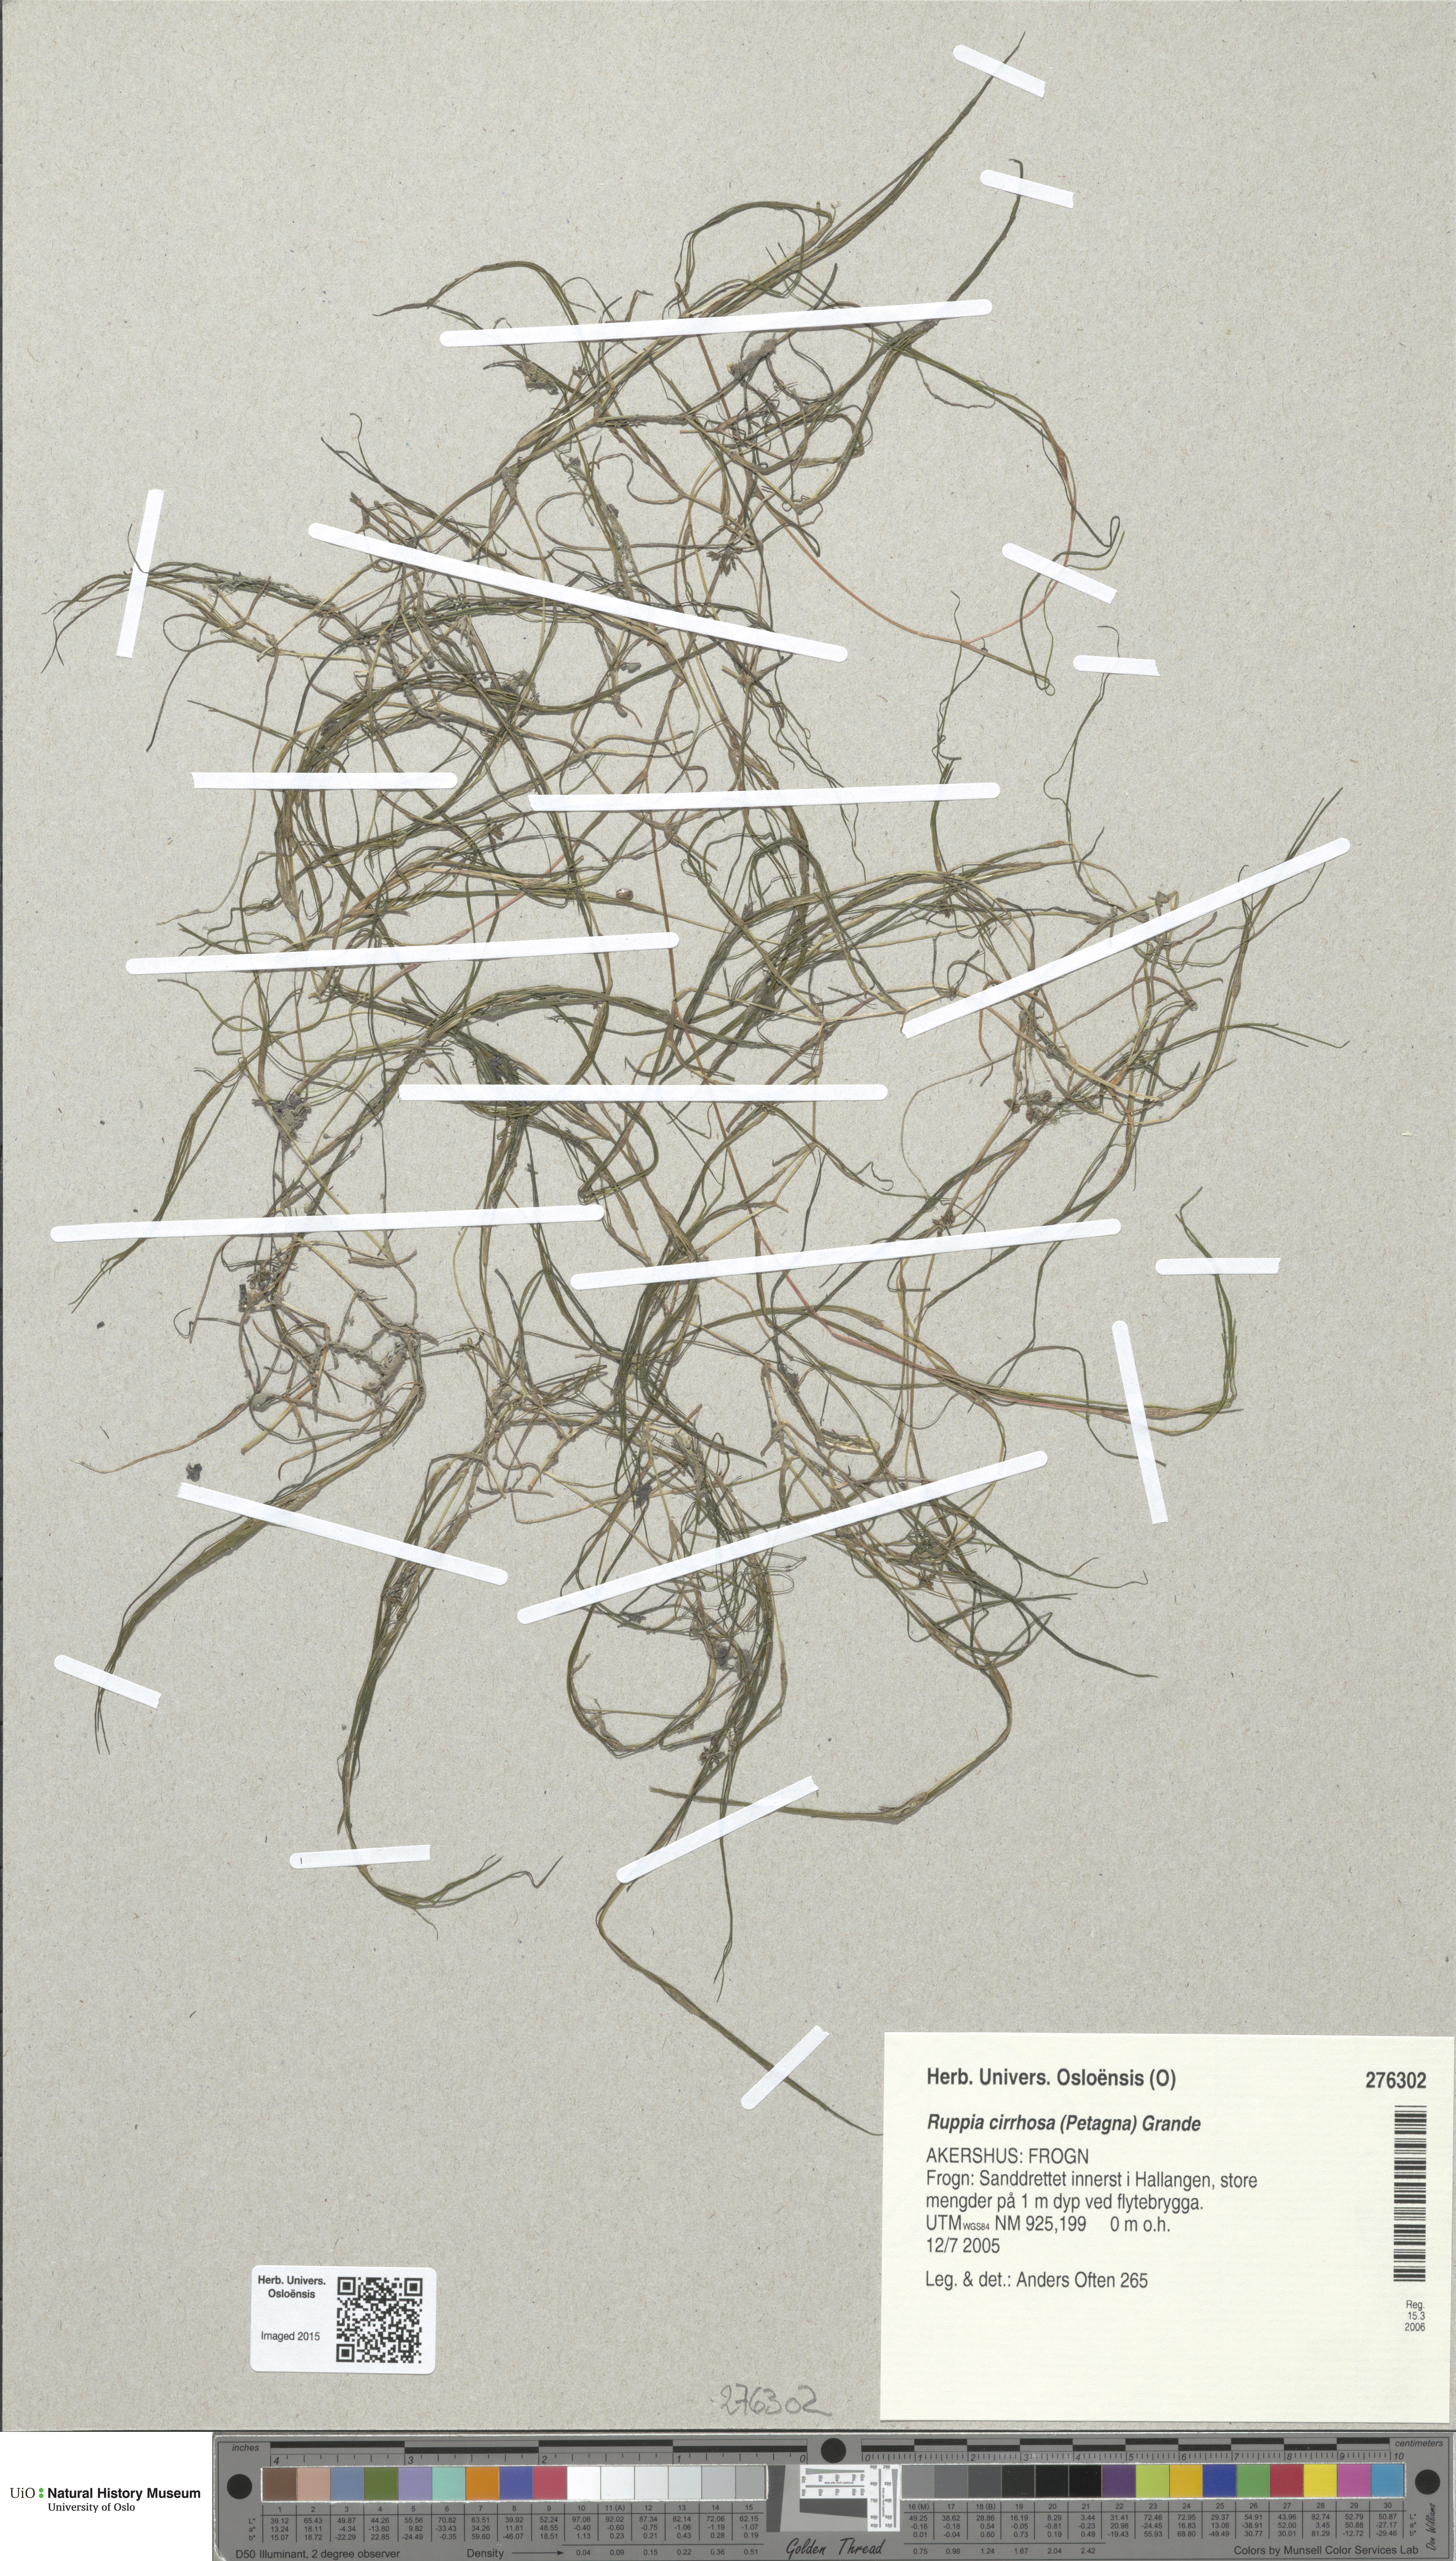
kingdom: Plantae
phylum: Tracheophyta
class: Liliopsida
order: Alismatales
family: Ruppiaceae
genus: Ruppia
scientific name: Ruppia cirrhosa
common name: Spiral tasselweed
